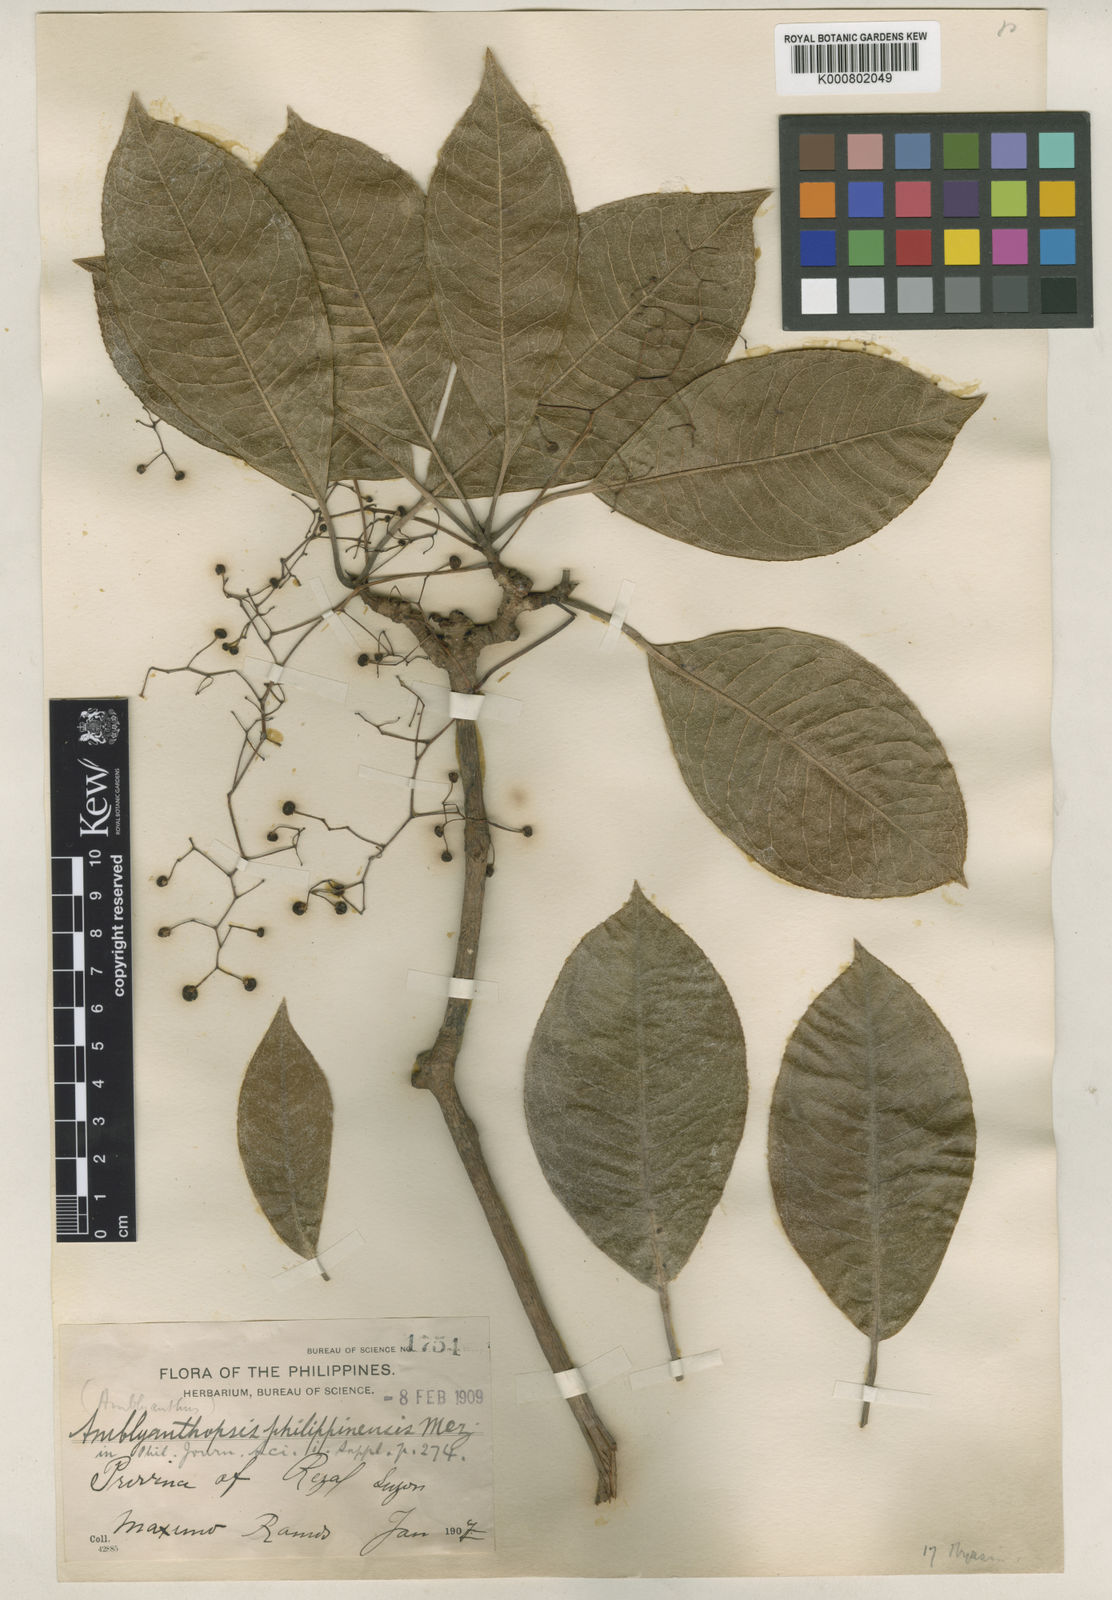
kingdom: Plantae
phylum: Tracheophyta
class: Magnoliopsida
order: Ericales
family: Primulaceae
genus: Discocalyx
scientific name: Discocalyx philippinensis
